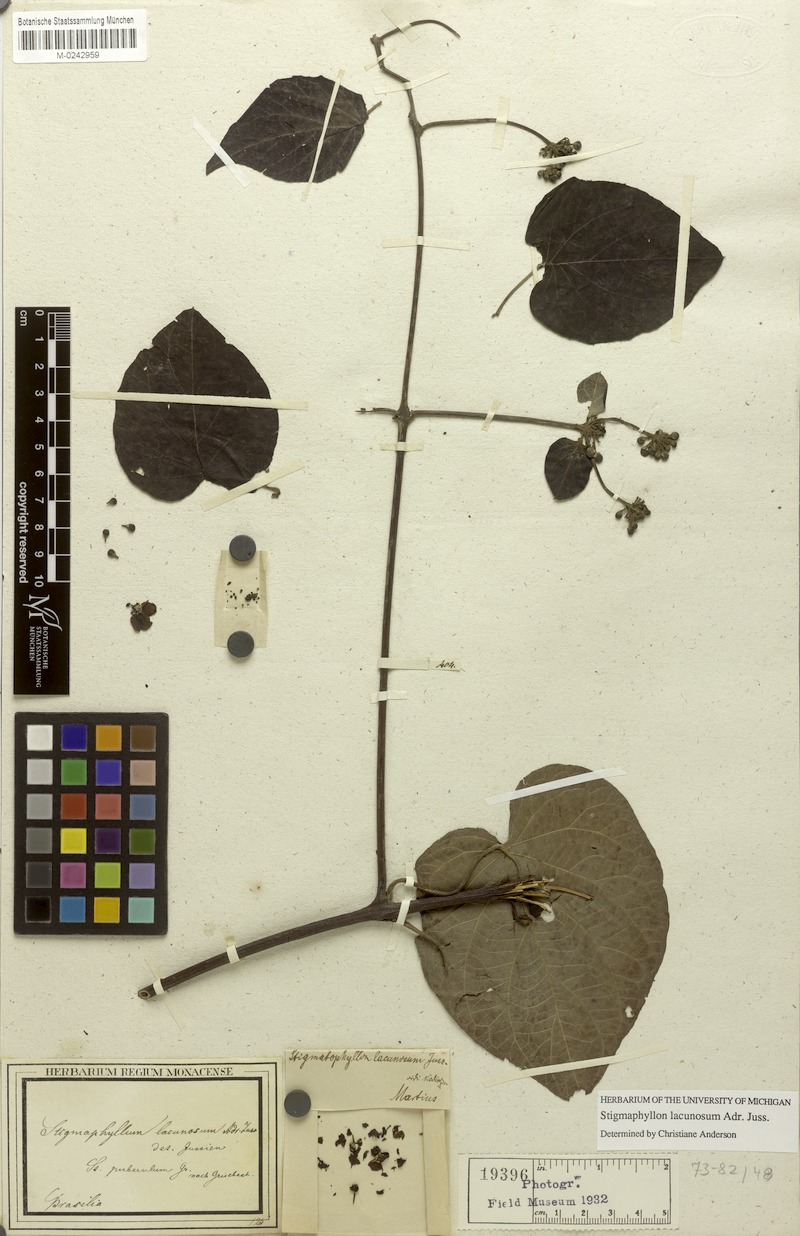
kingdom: Plantae
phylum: Tracheophyta
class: Magnoliopsida
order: Malpighiales
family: Malpighiaceae
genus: Stigmaphyllon
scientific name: Stigmaphyllon lacunosum
